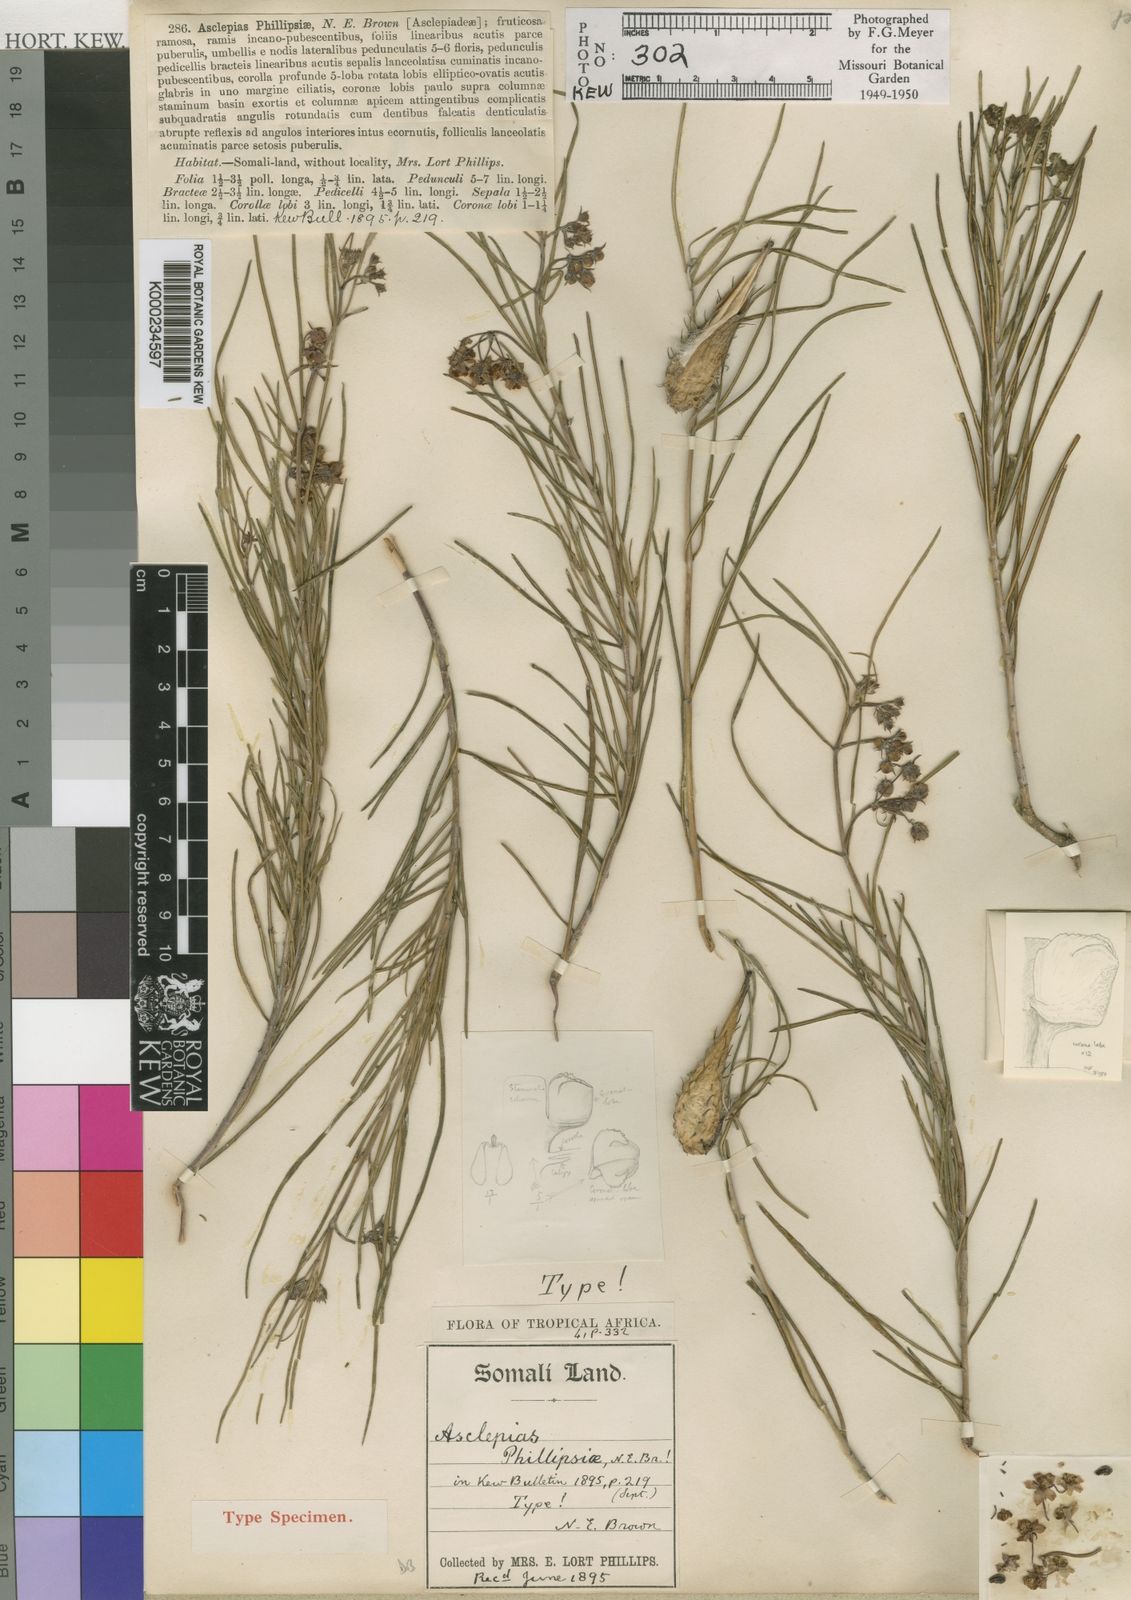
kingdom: Plantae
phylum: Tracheophyta
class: Magnoliopsida
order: Gentianales
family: Apocynaceae
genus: Gomphocarpus
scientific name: Gomphocarpus phillipsiae
